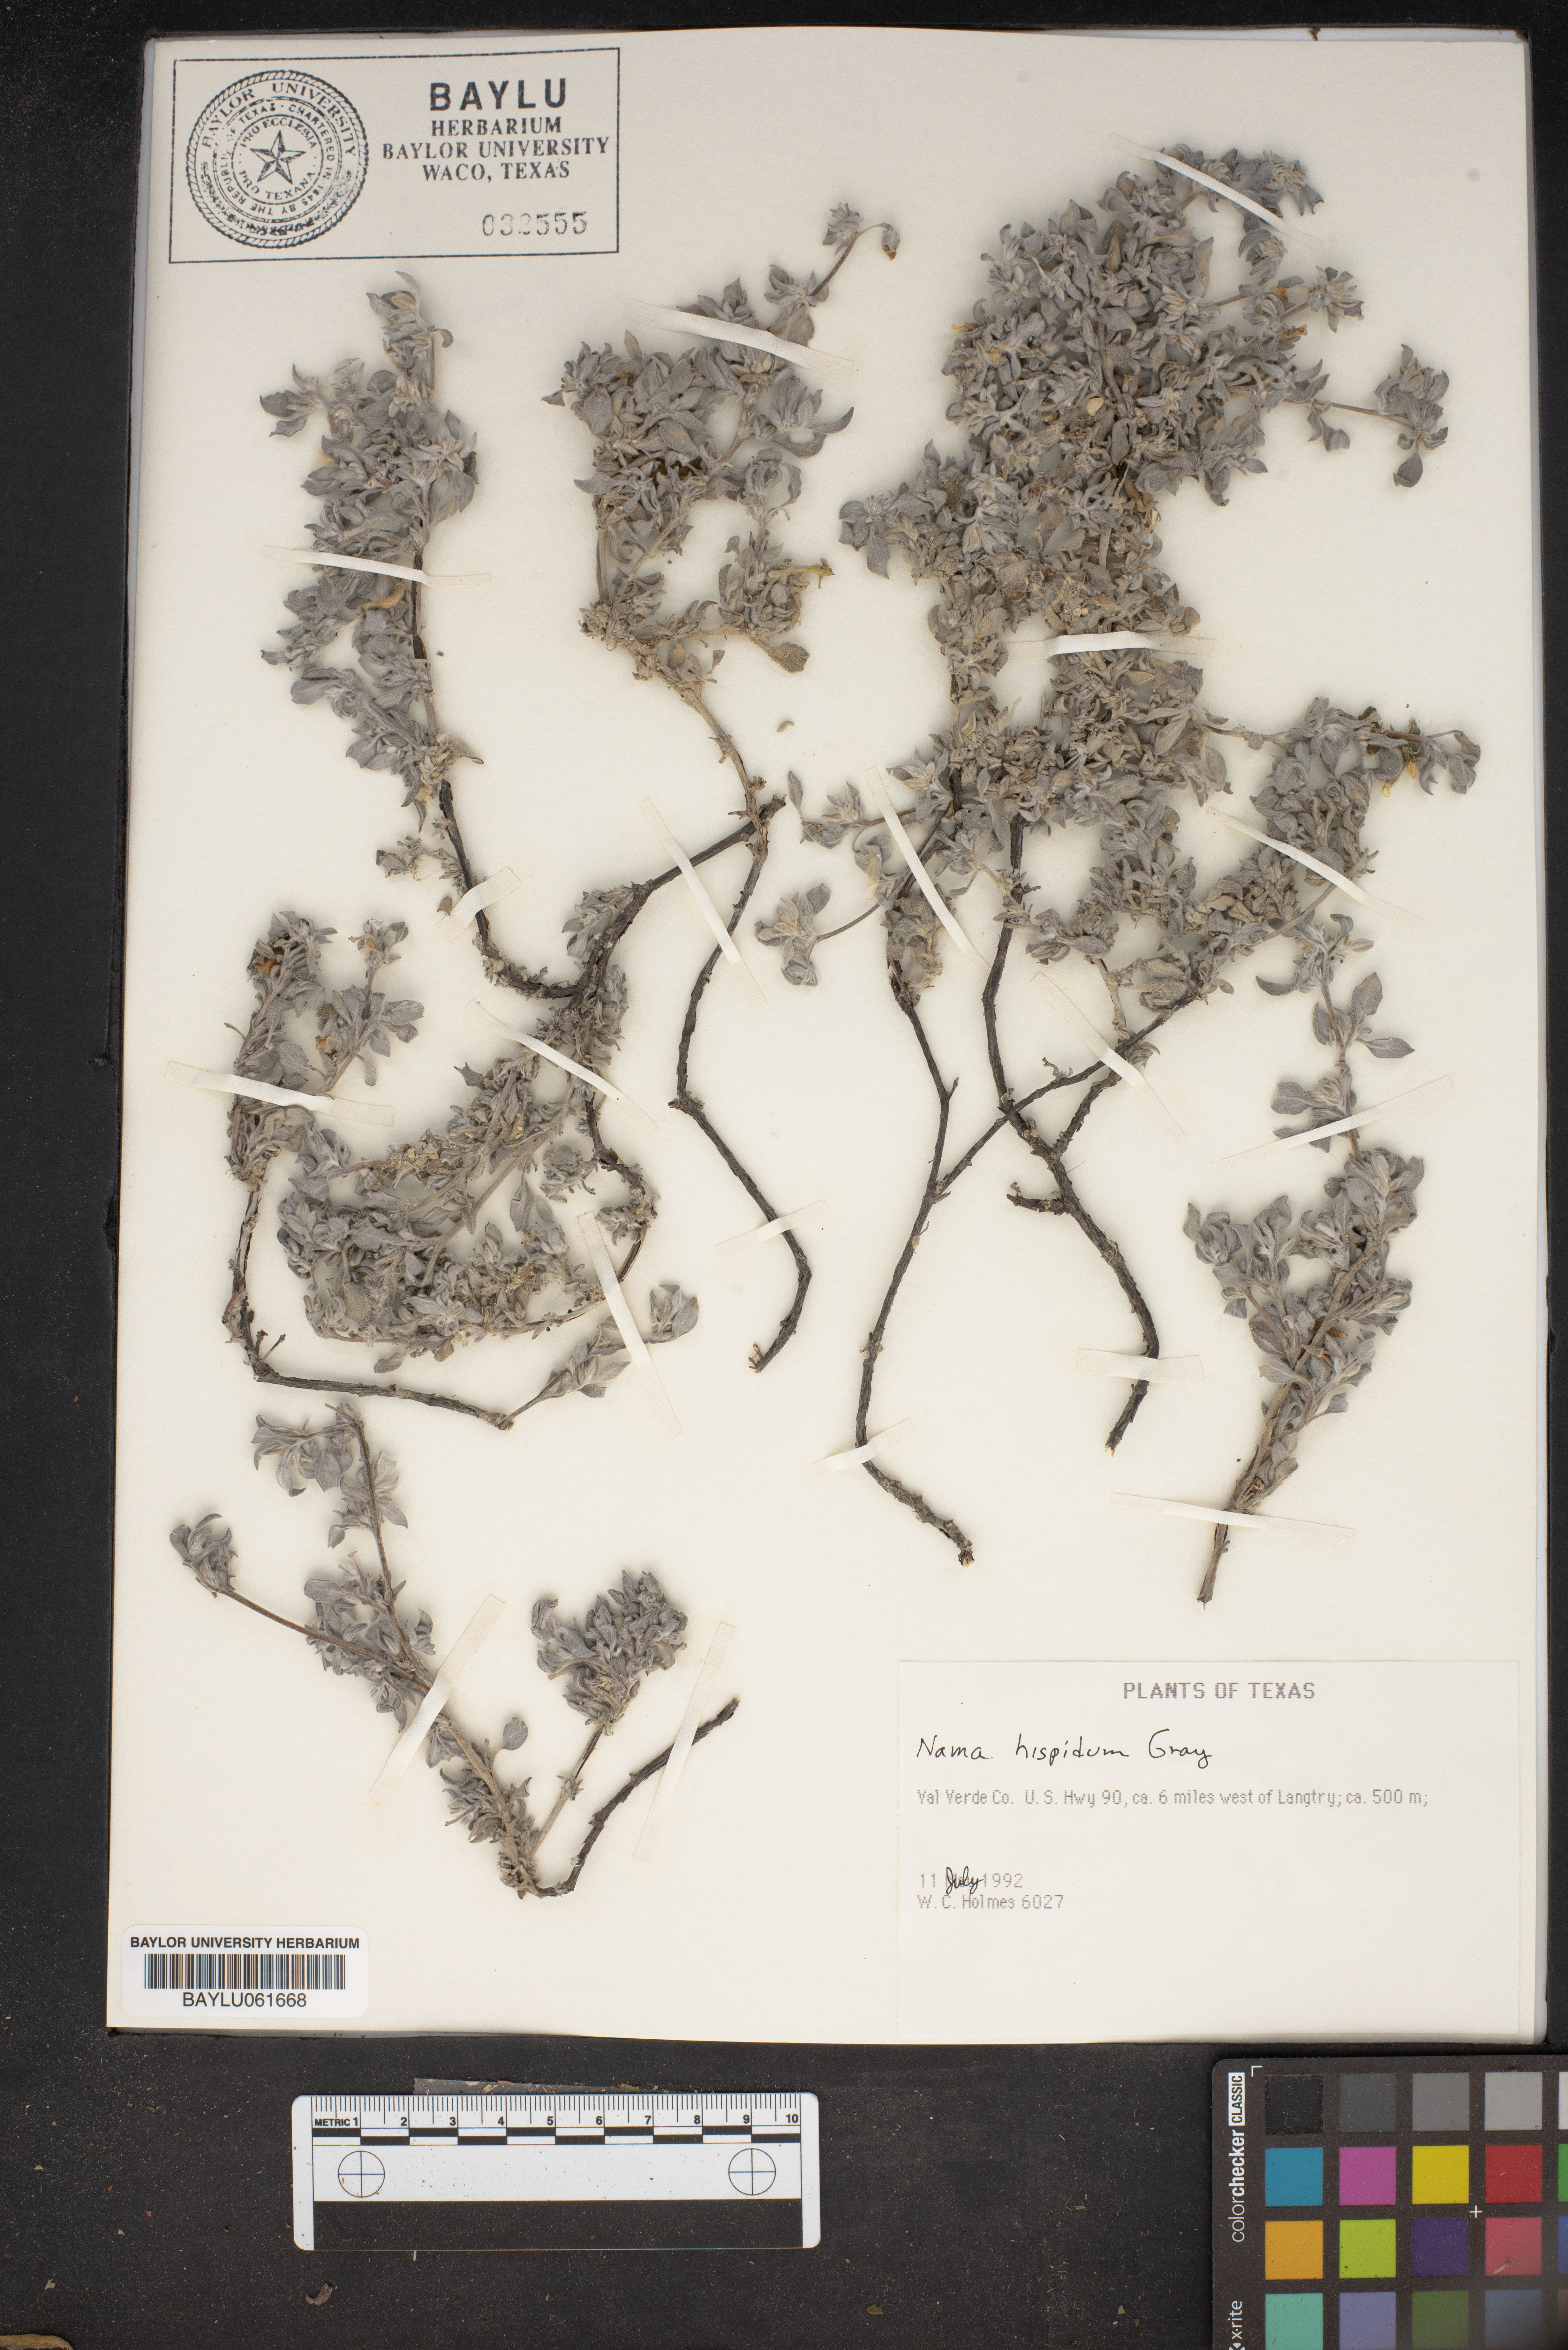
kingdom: Plantae
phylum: Tracheophyta
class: Magnoliopsida
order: Boraginales
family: Namaceae
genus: Nama
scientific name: Nama hispida
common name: Bristly nama
